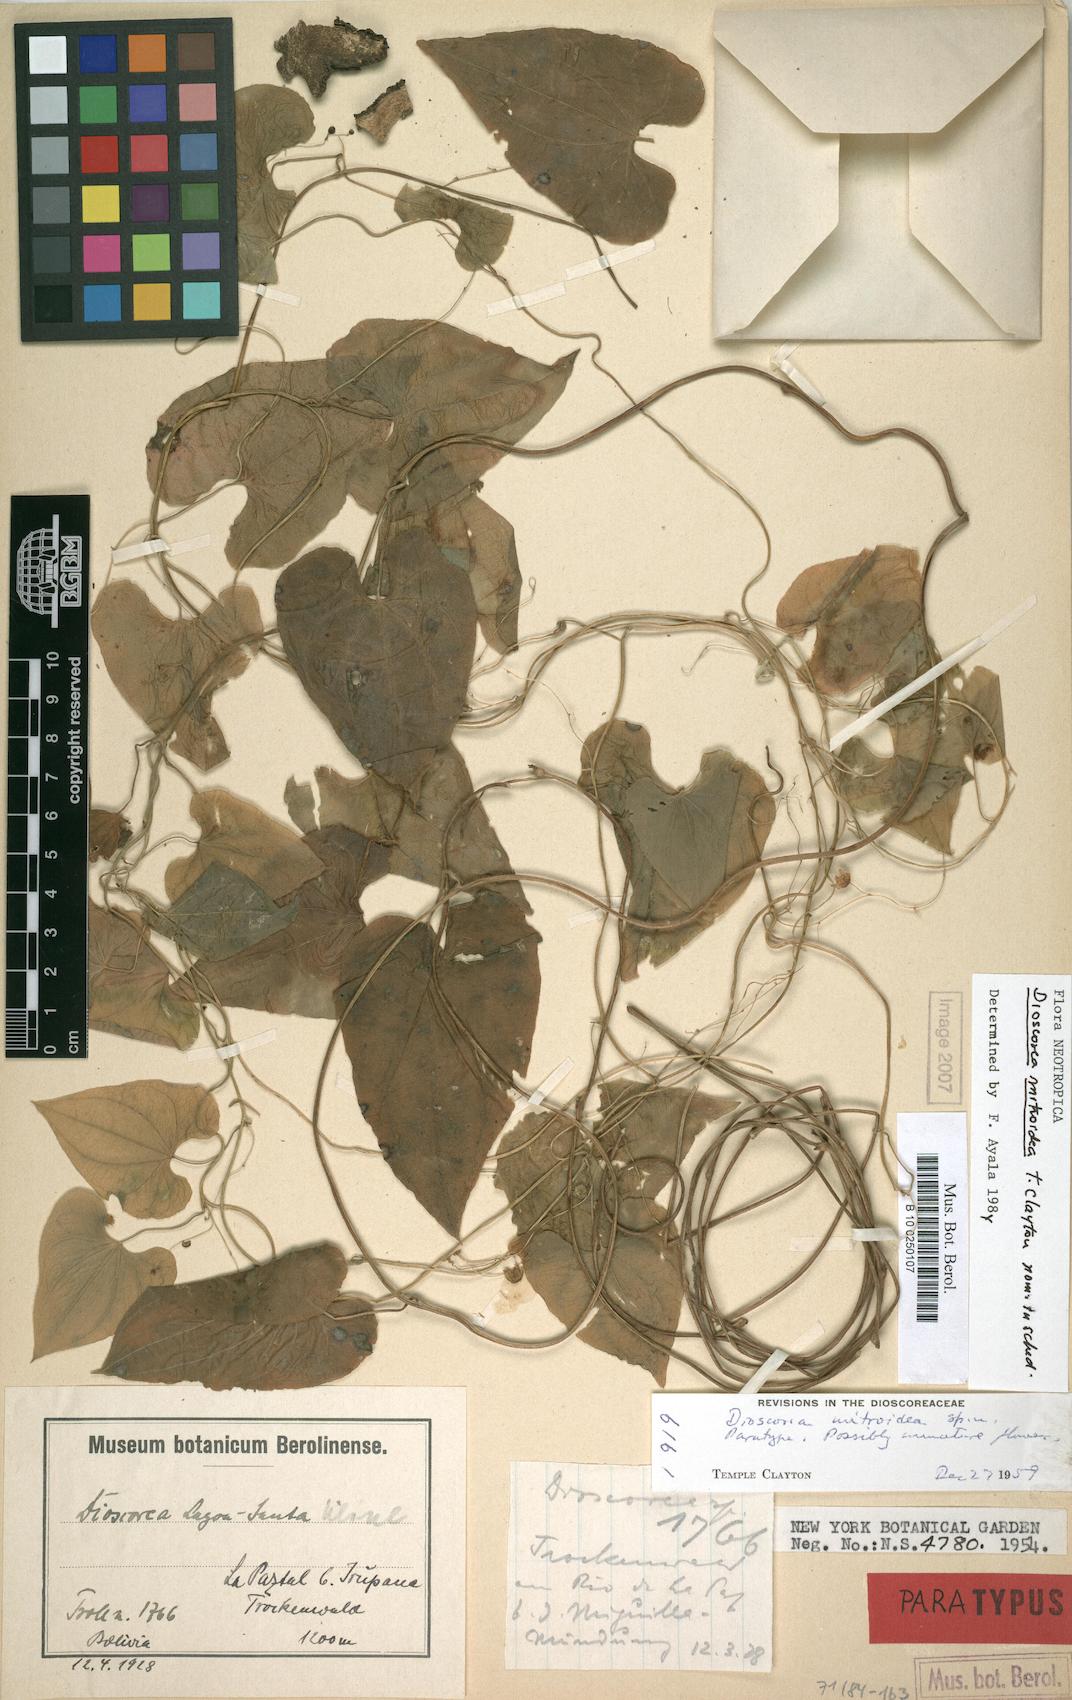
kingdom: Plantae
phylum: Tracheophyta
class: Liliopsida
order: Dioscoreales
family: Dioscoreaceae
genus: Dioscorea
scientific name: Dioscorea subhastata
